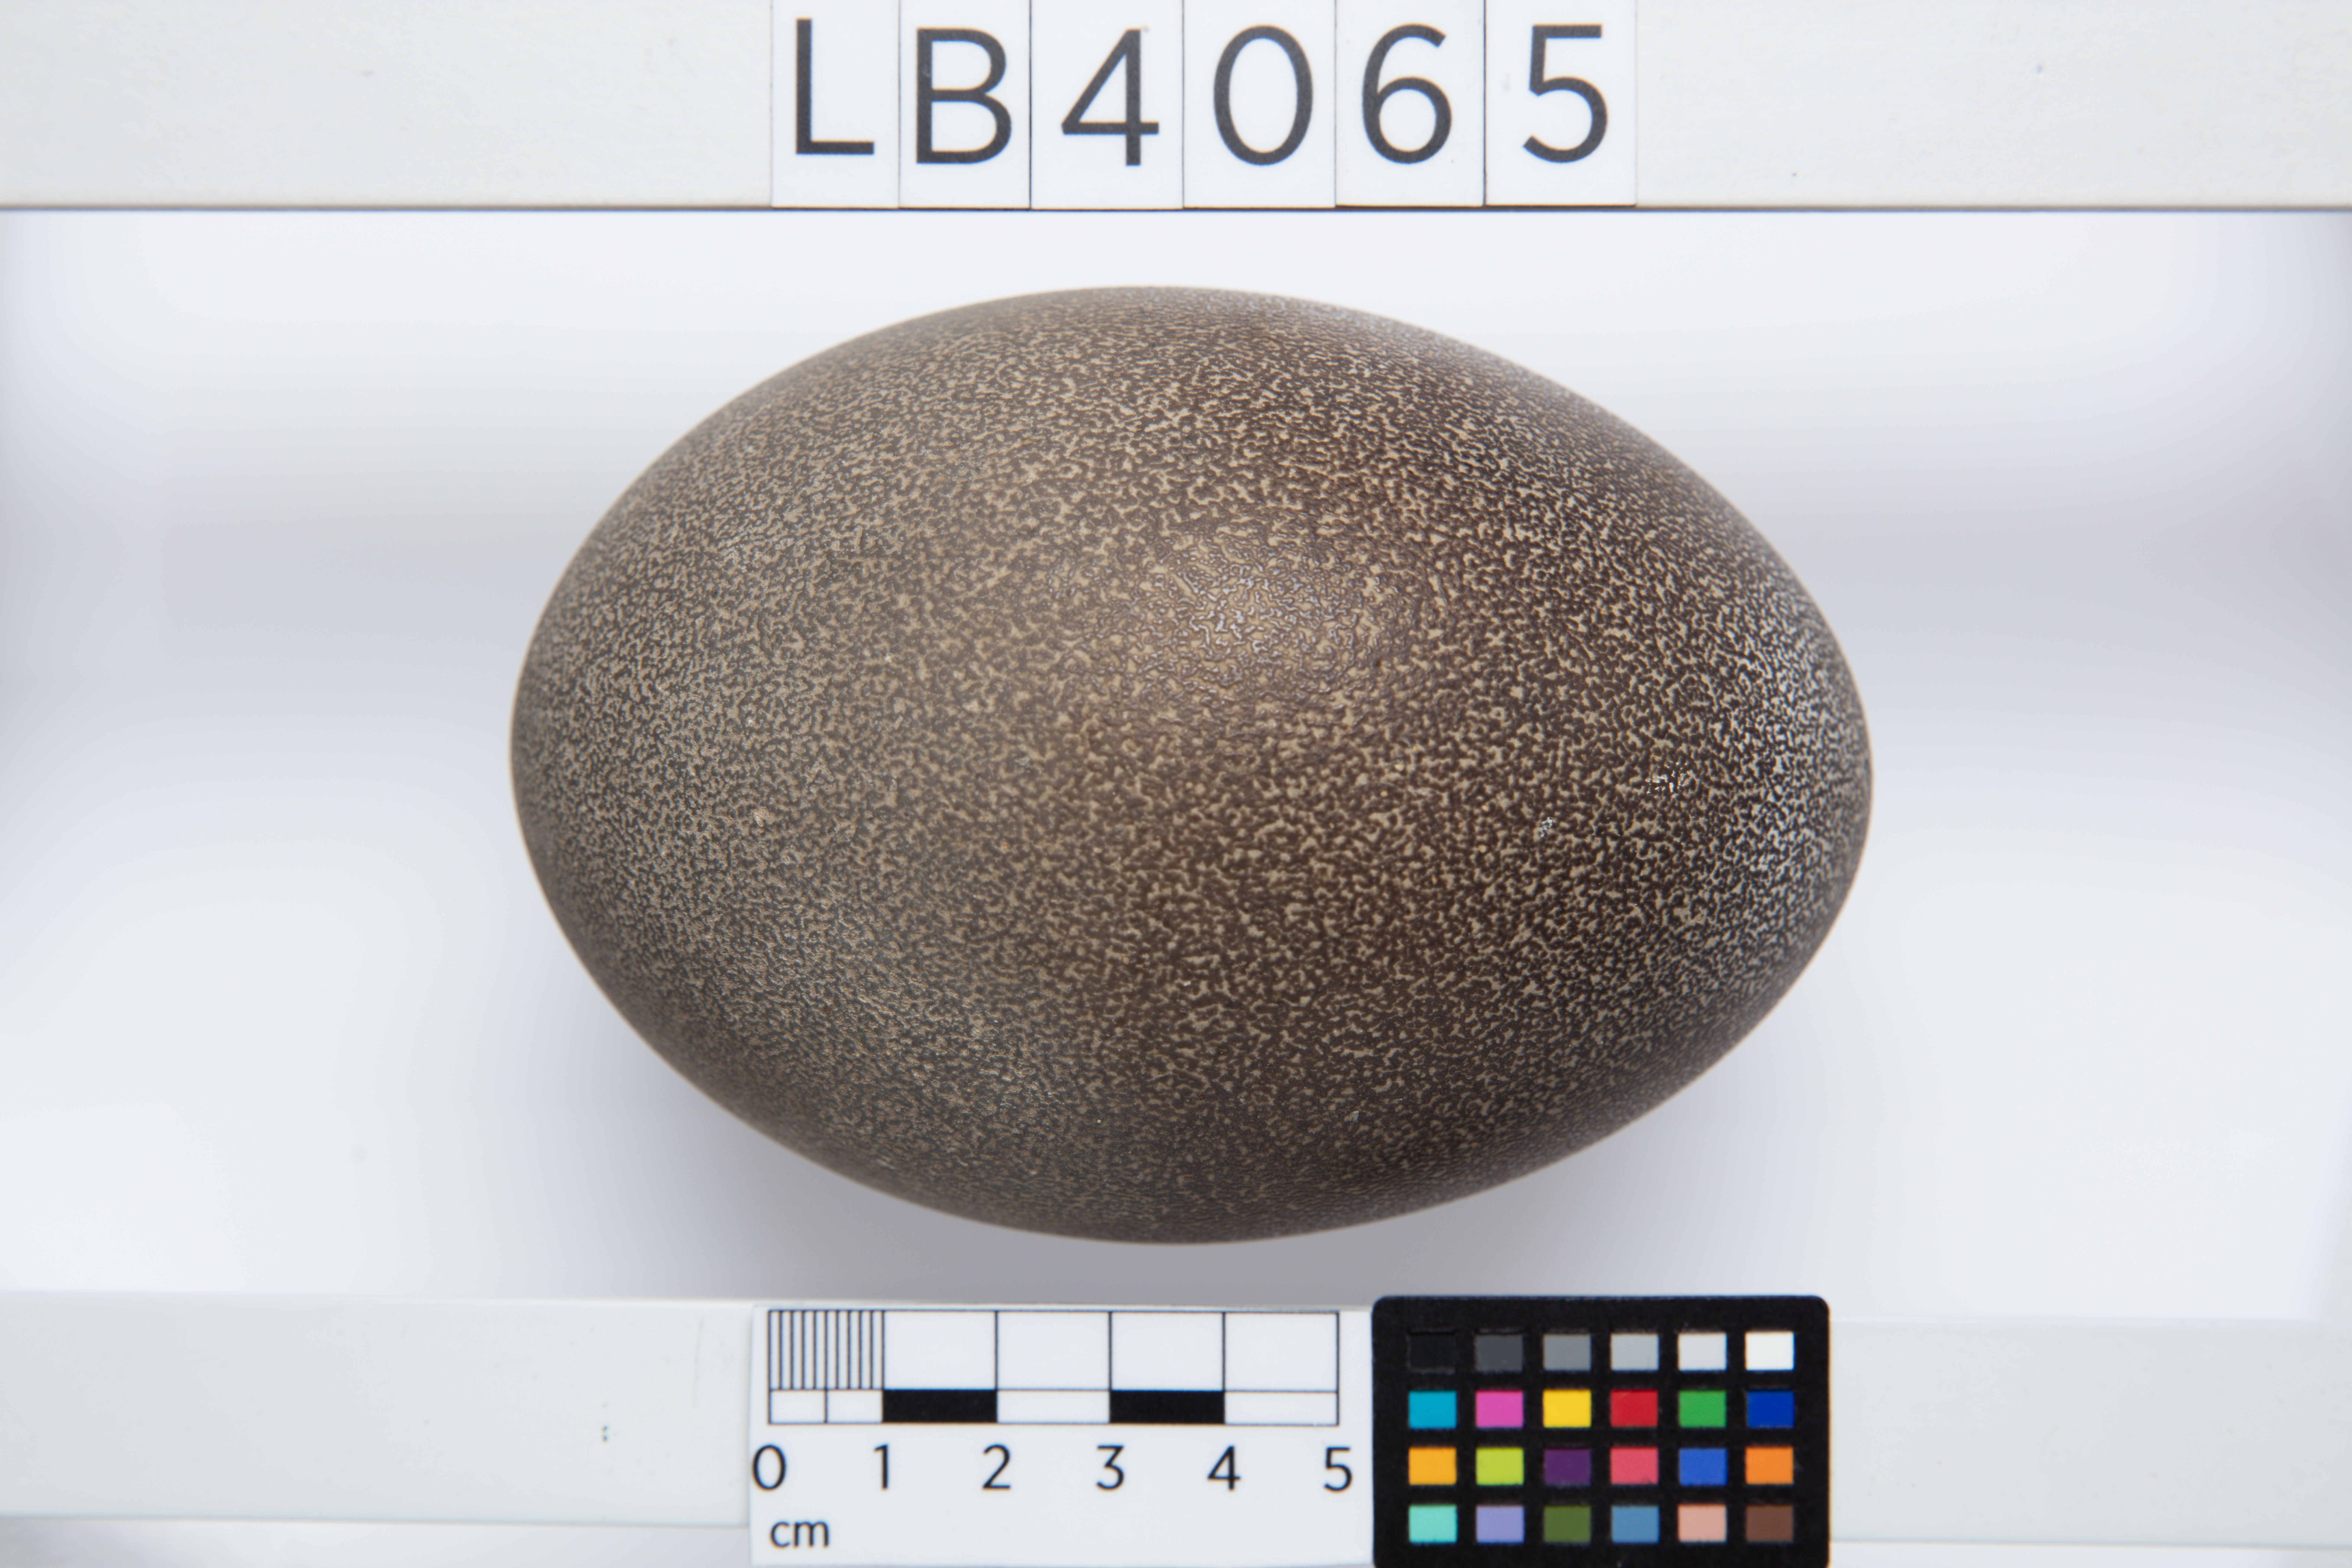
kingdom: Animalia
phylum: Chordata
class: Aves
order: Casuariiformes
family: Dromaiidae
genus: Dromaius
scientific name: Dromaius novaehollandiae
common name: Emu
